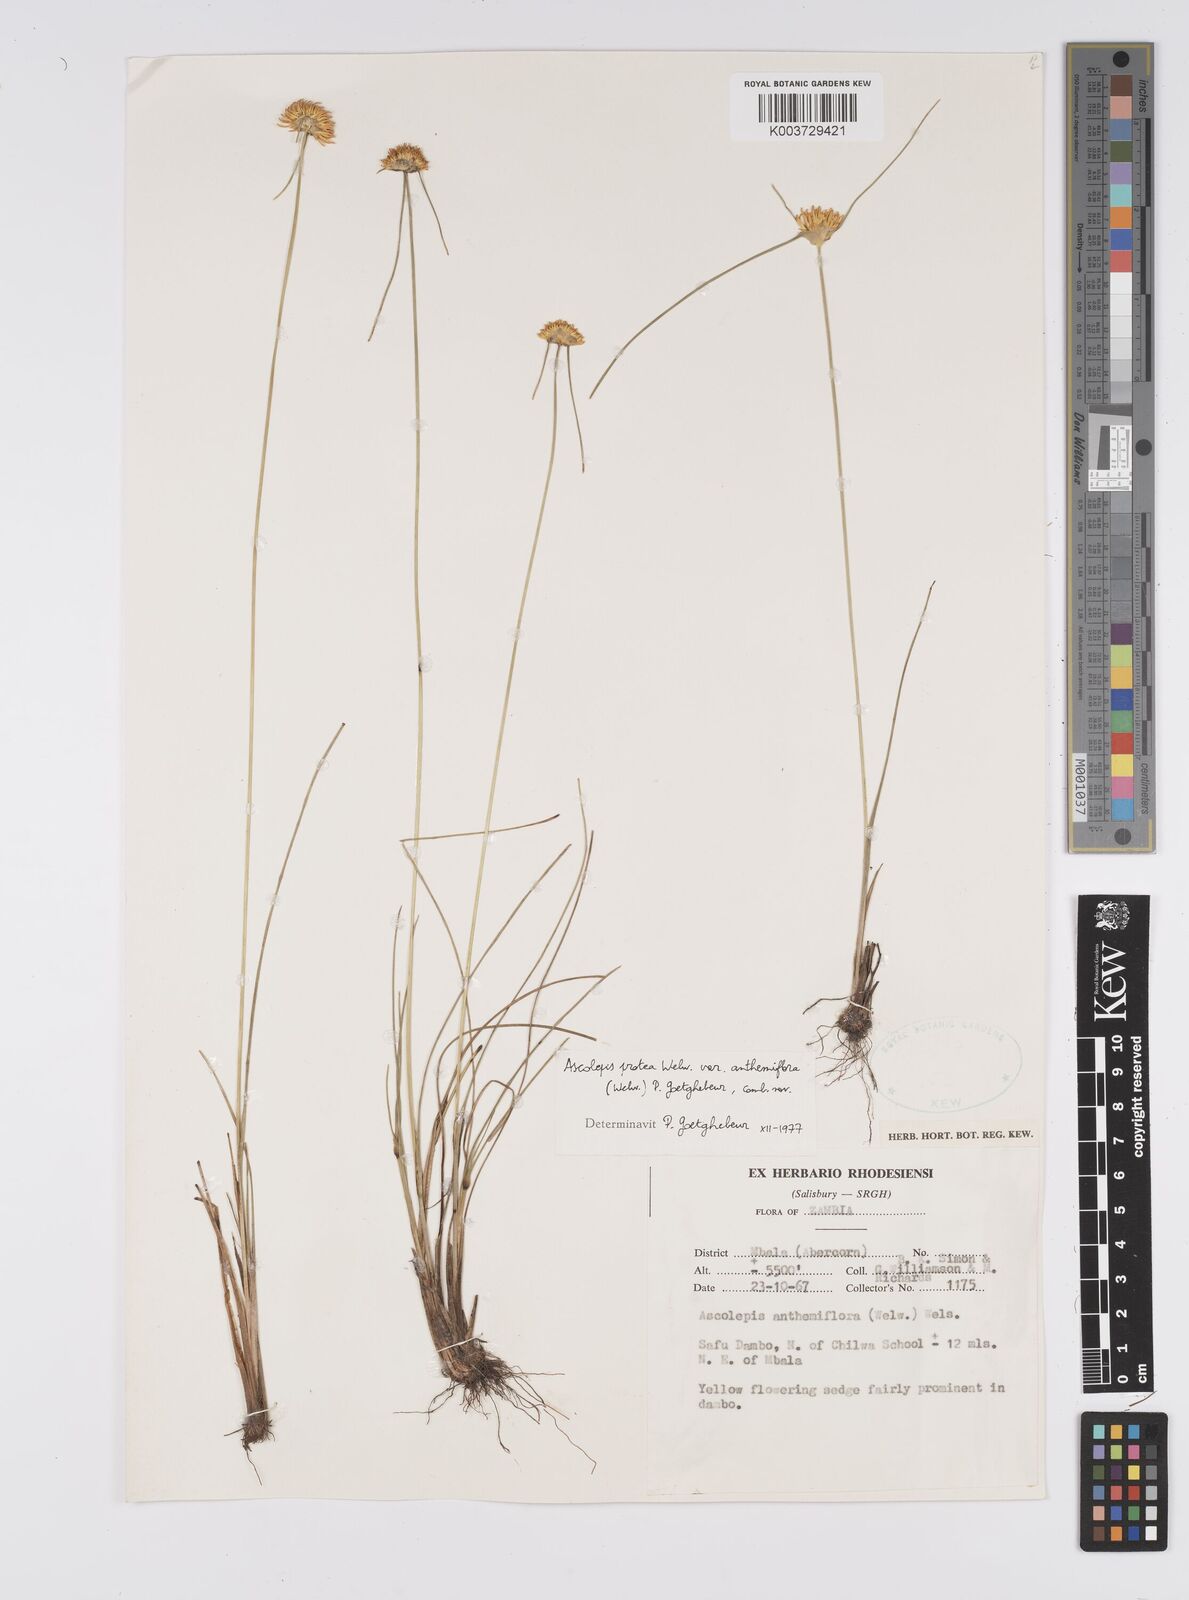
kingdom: Plantae
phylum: Tracheophyta
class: Liliopsida
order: Poales
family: Cyperaceae
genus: Cyperus
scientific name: Cyperus
